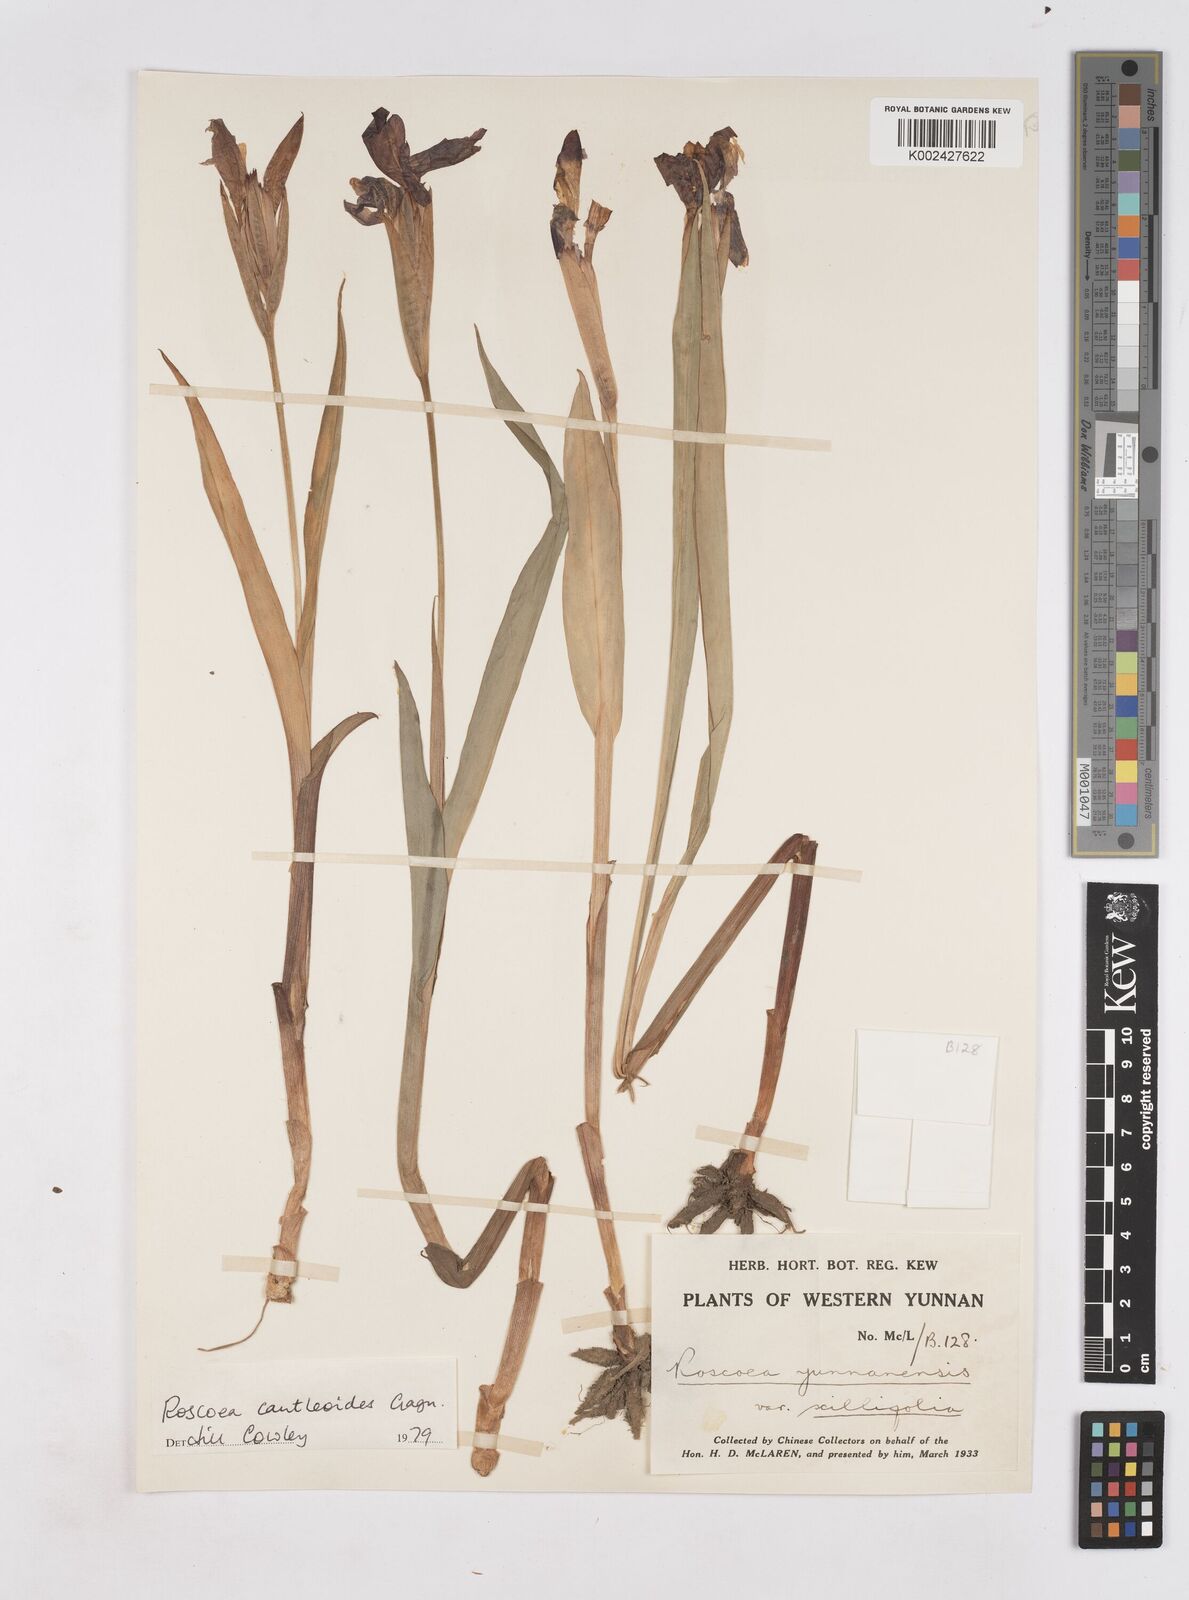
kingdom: Plantae
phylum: Tracheophyta
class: Liliopsida
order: Zingiberales
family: Zingiberaceae
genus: Roscoea
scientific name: Roscoea cautleyoides
